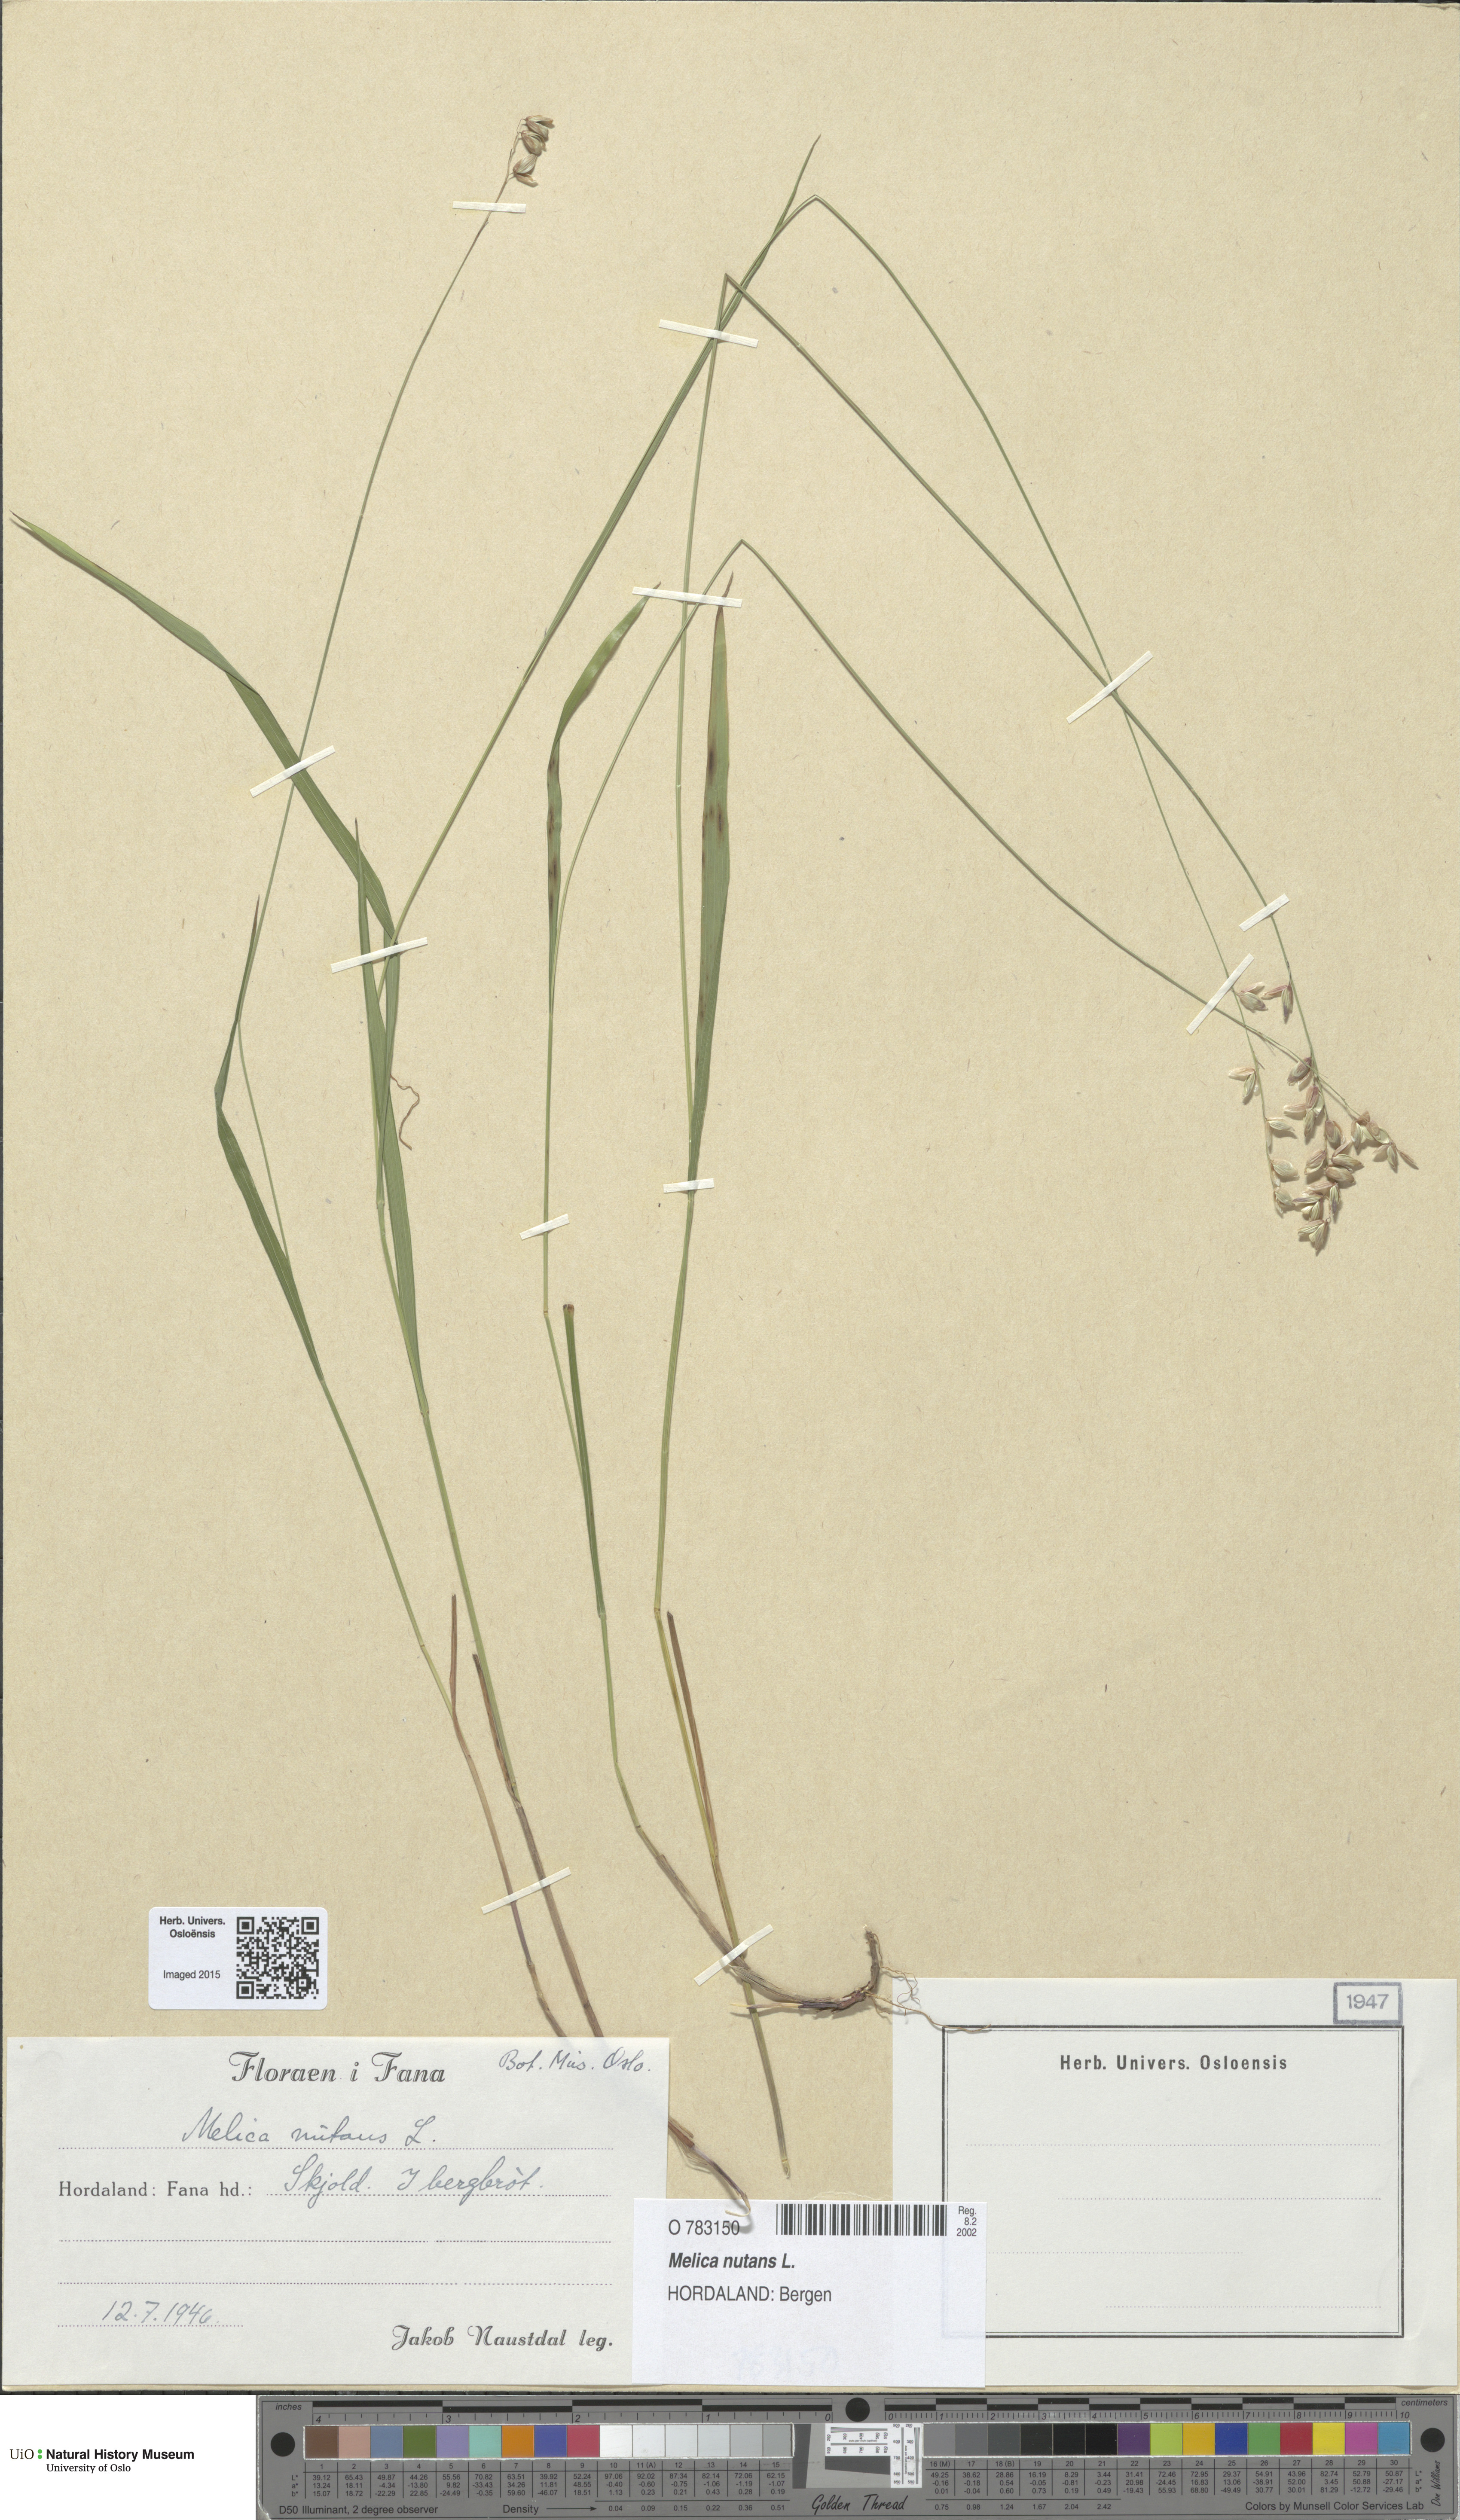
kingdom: Plantae
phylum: Tracheophyta
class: Liliopsida
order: Poales
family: Poaceae
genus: Melica
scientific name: Melica nutans
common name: Mountain melick
